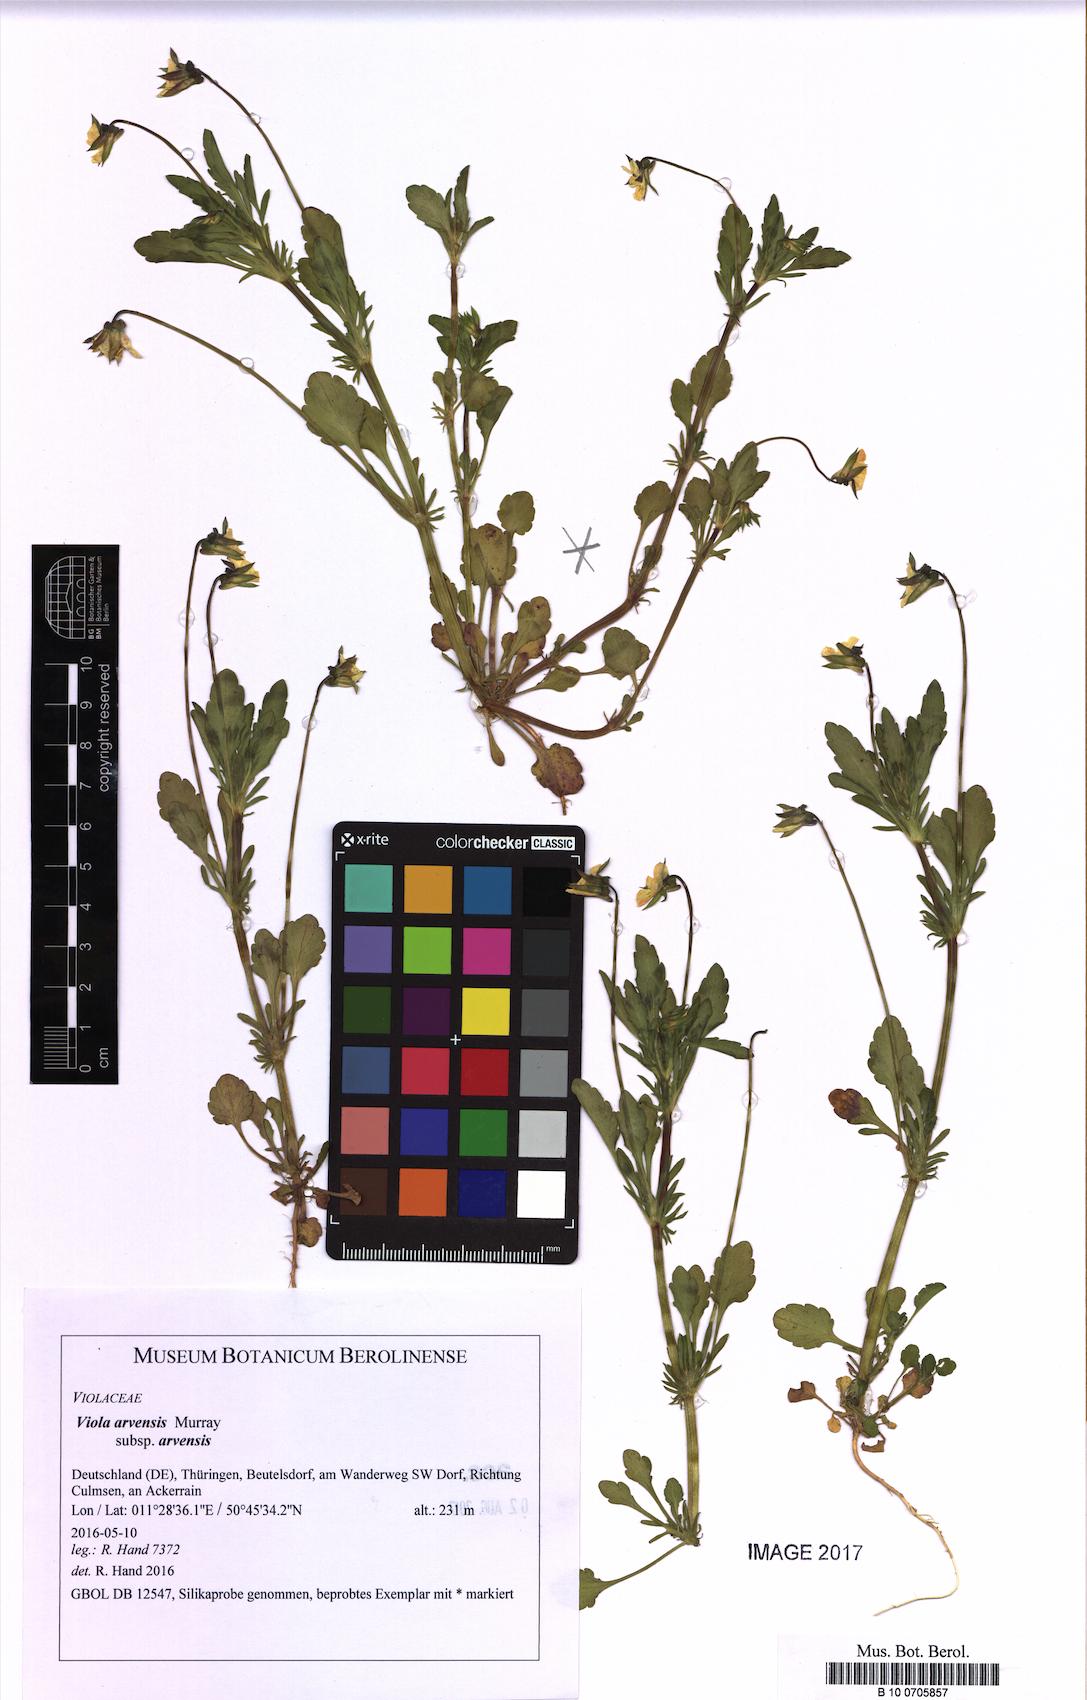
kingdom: Plantae
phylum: Tracheophyta
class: Magnoliopsida
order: Malpighiales
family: Violaceae
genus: Viola
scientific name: Viola arvensis
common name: Field pansy
